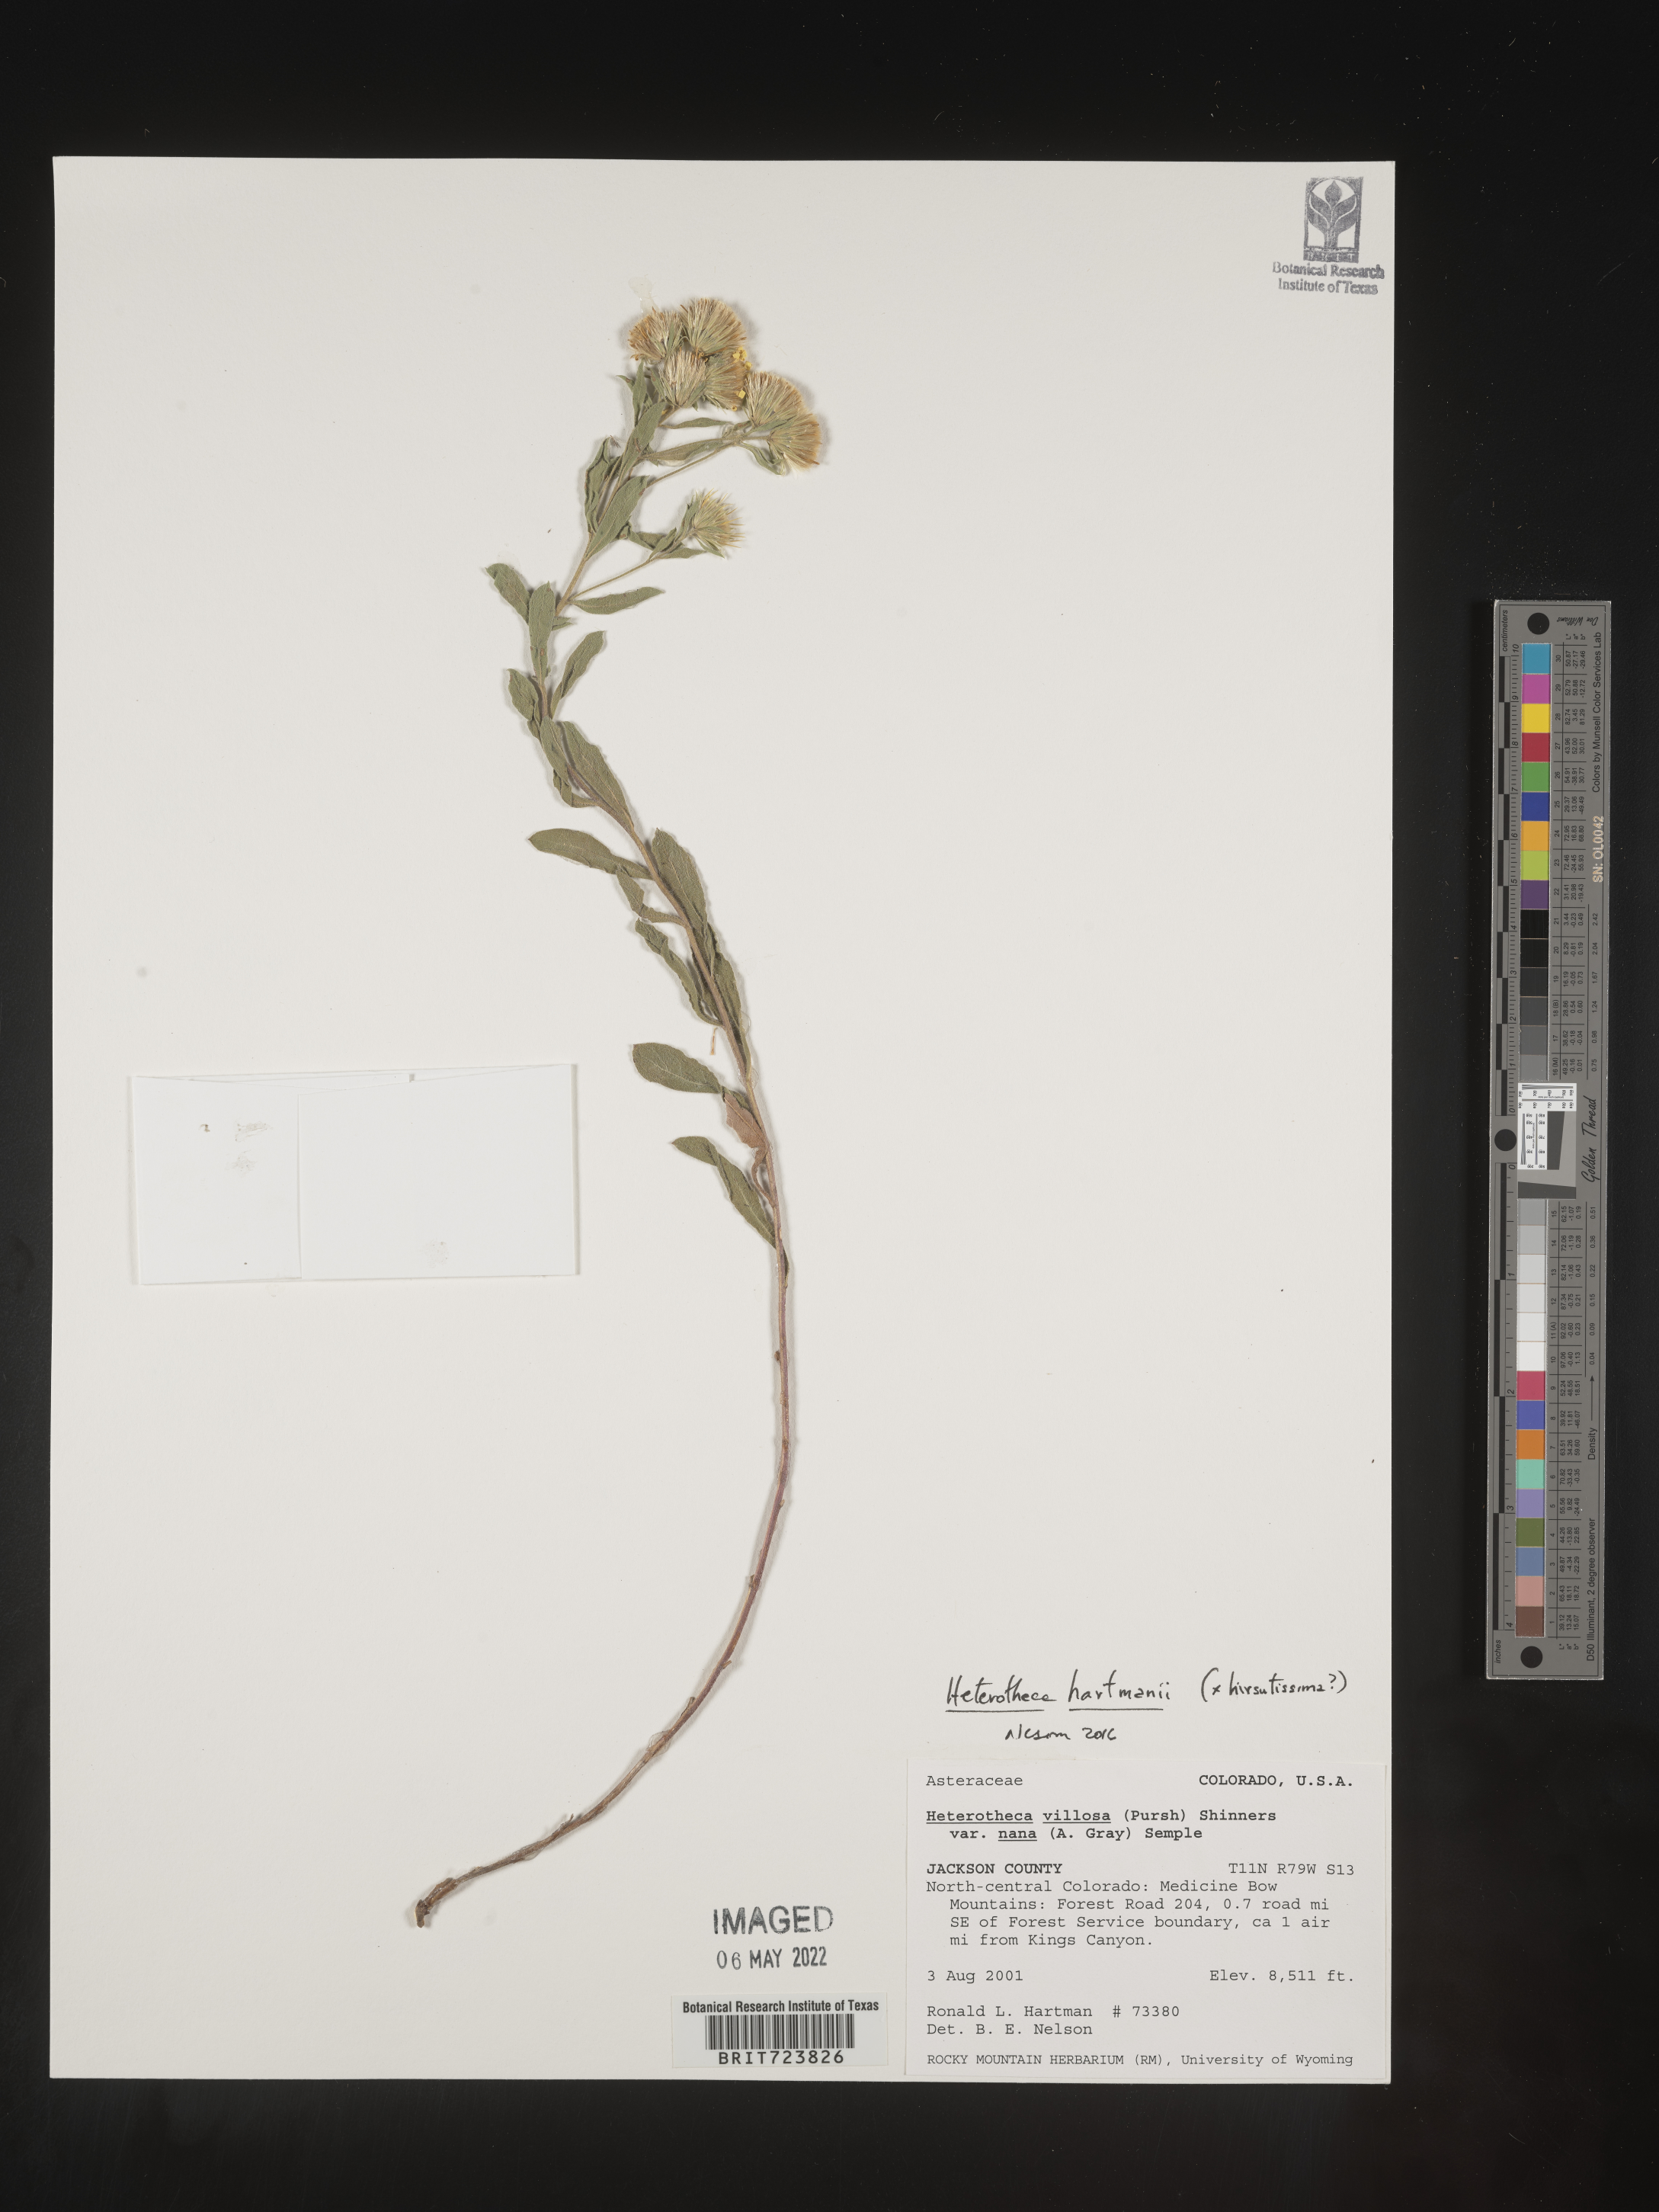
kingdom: Plantae
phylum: Tracheophyta
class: Magnoliopsida
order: Asterales
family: Asteraceae
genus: Heterotheca
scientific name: Heterotheca hartmanii
